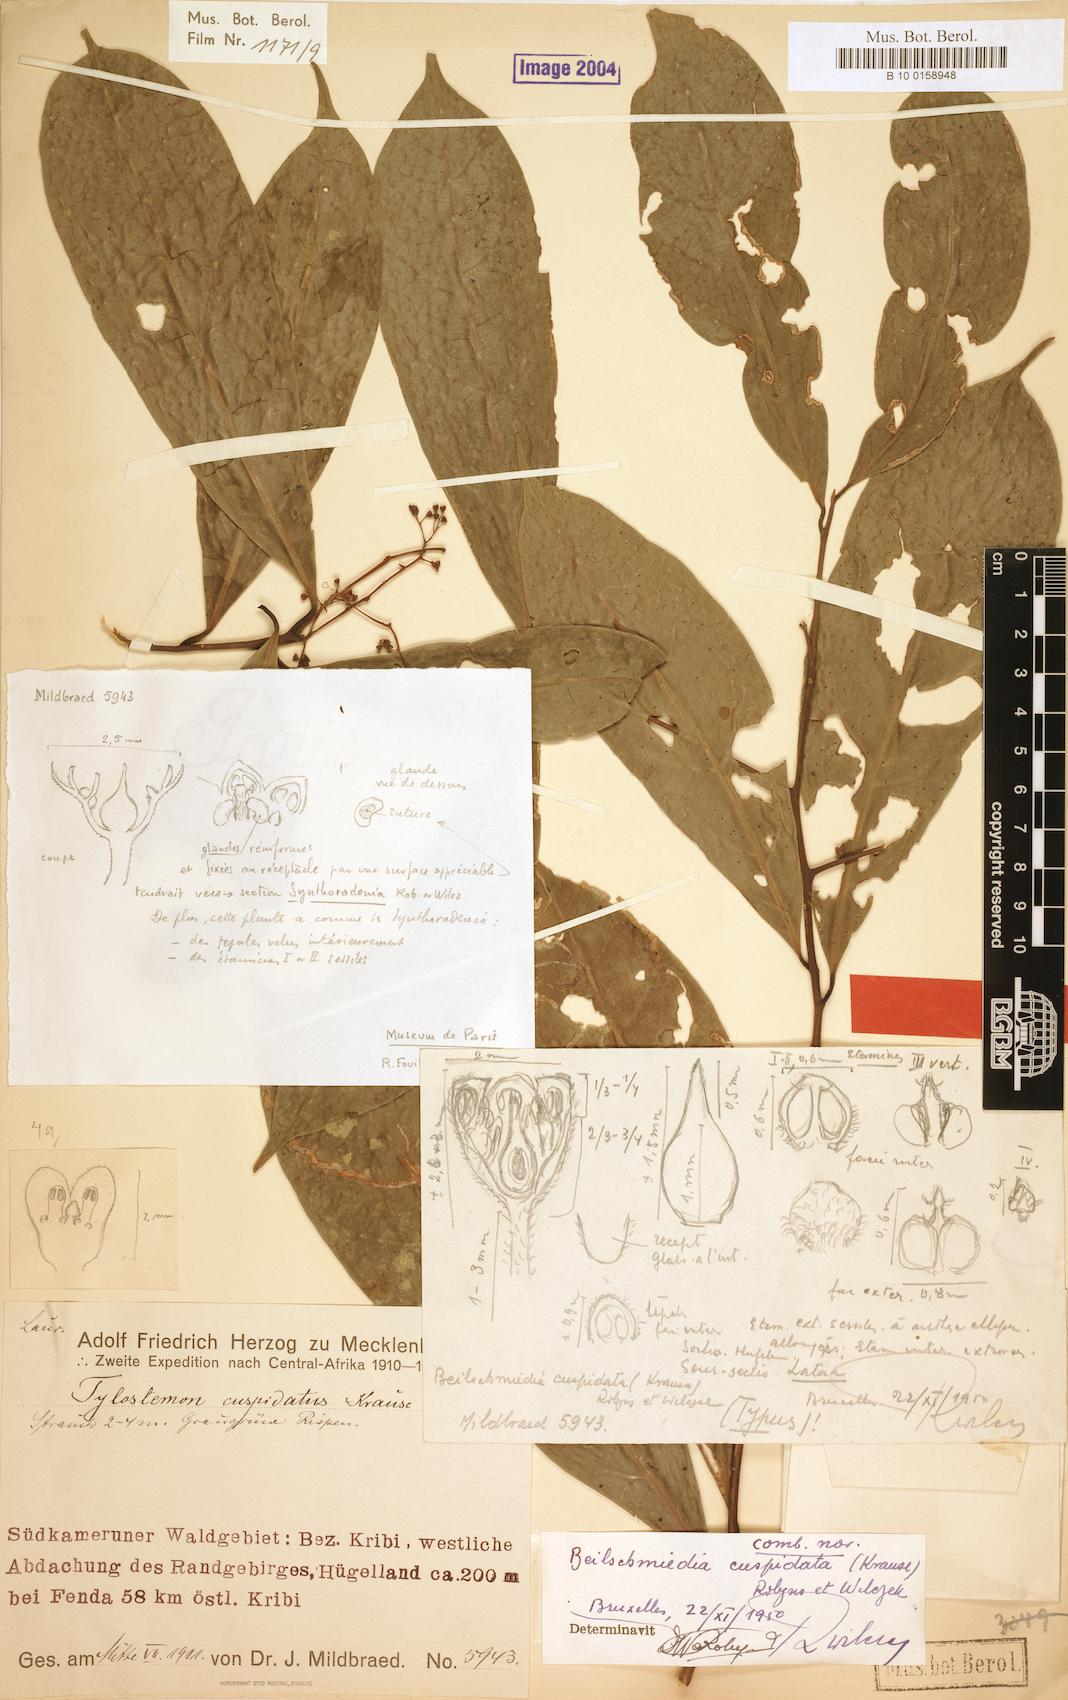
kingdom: Plantae
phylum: Tracheophyta
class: Magnoliopsida
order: Laurales
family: Lauraceae
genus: Beilschmiedia
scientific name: Beilschmiedia cuspidata
